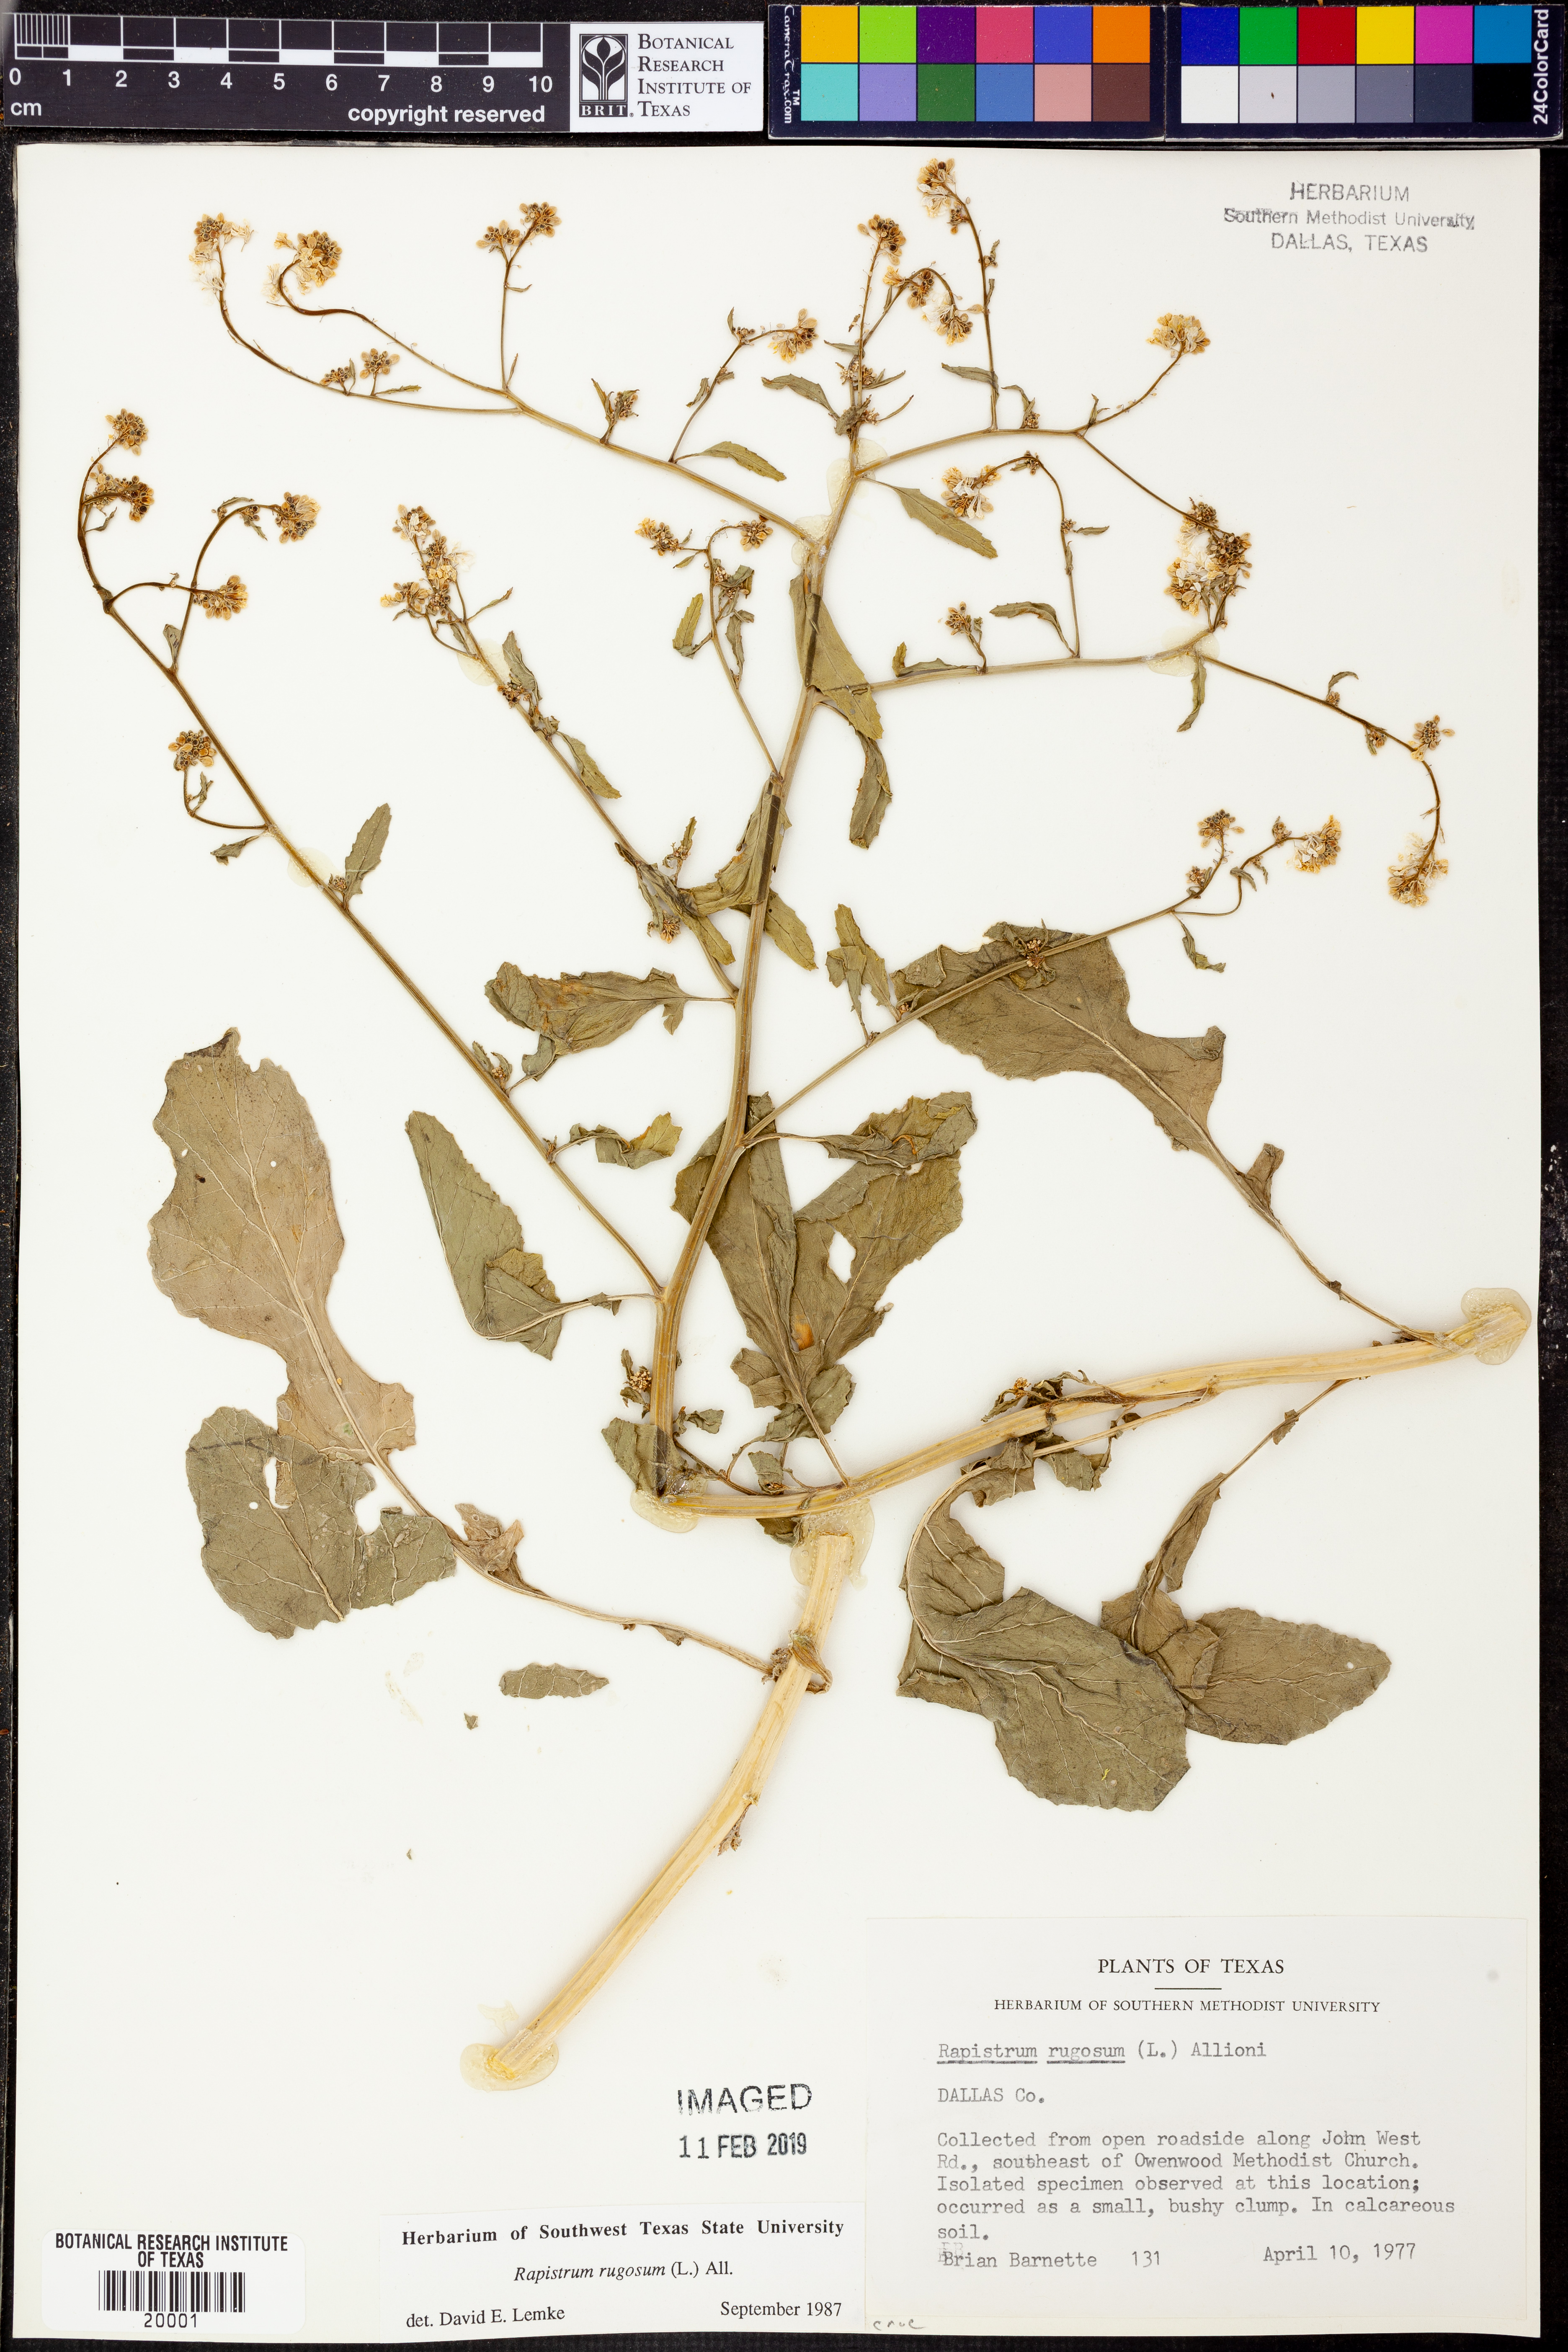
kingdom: Plantae
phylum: Tracheophyta
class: Magnoliopsida
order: Brassicales
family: Brassicaceae
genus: Rapistrum
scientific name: Rapistrum rugosum
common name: Annual bastardcabbage
